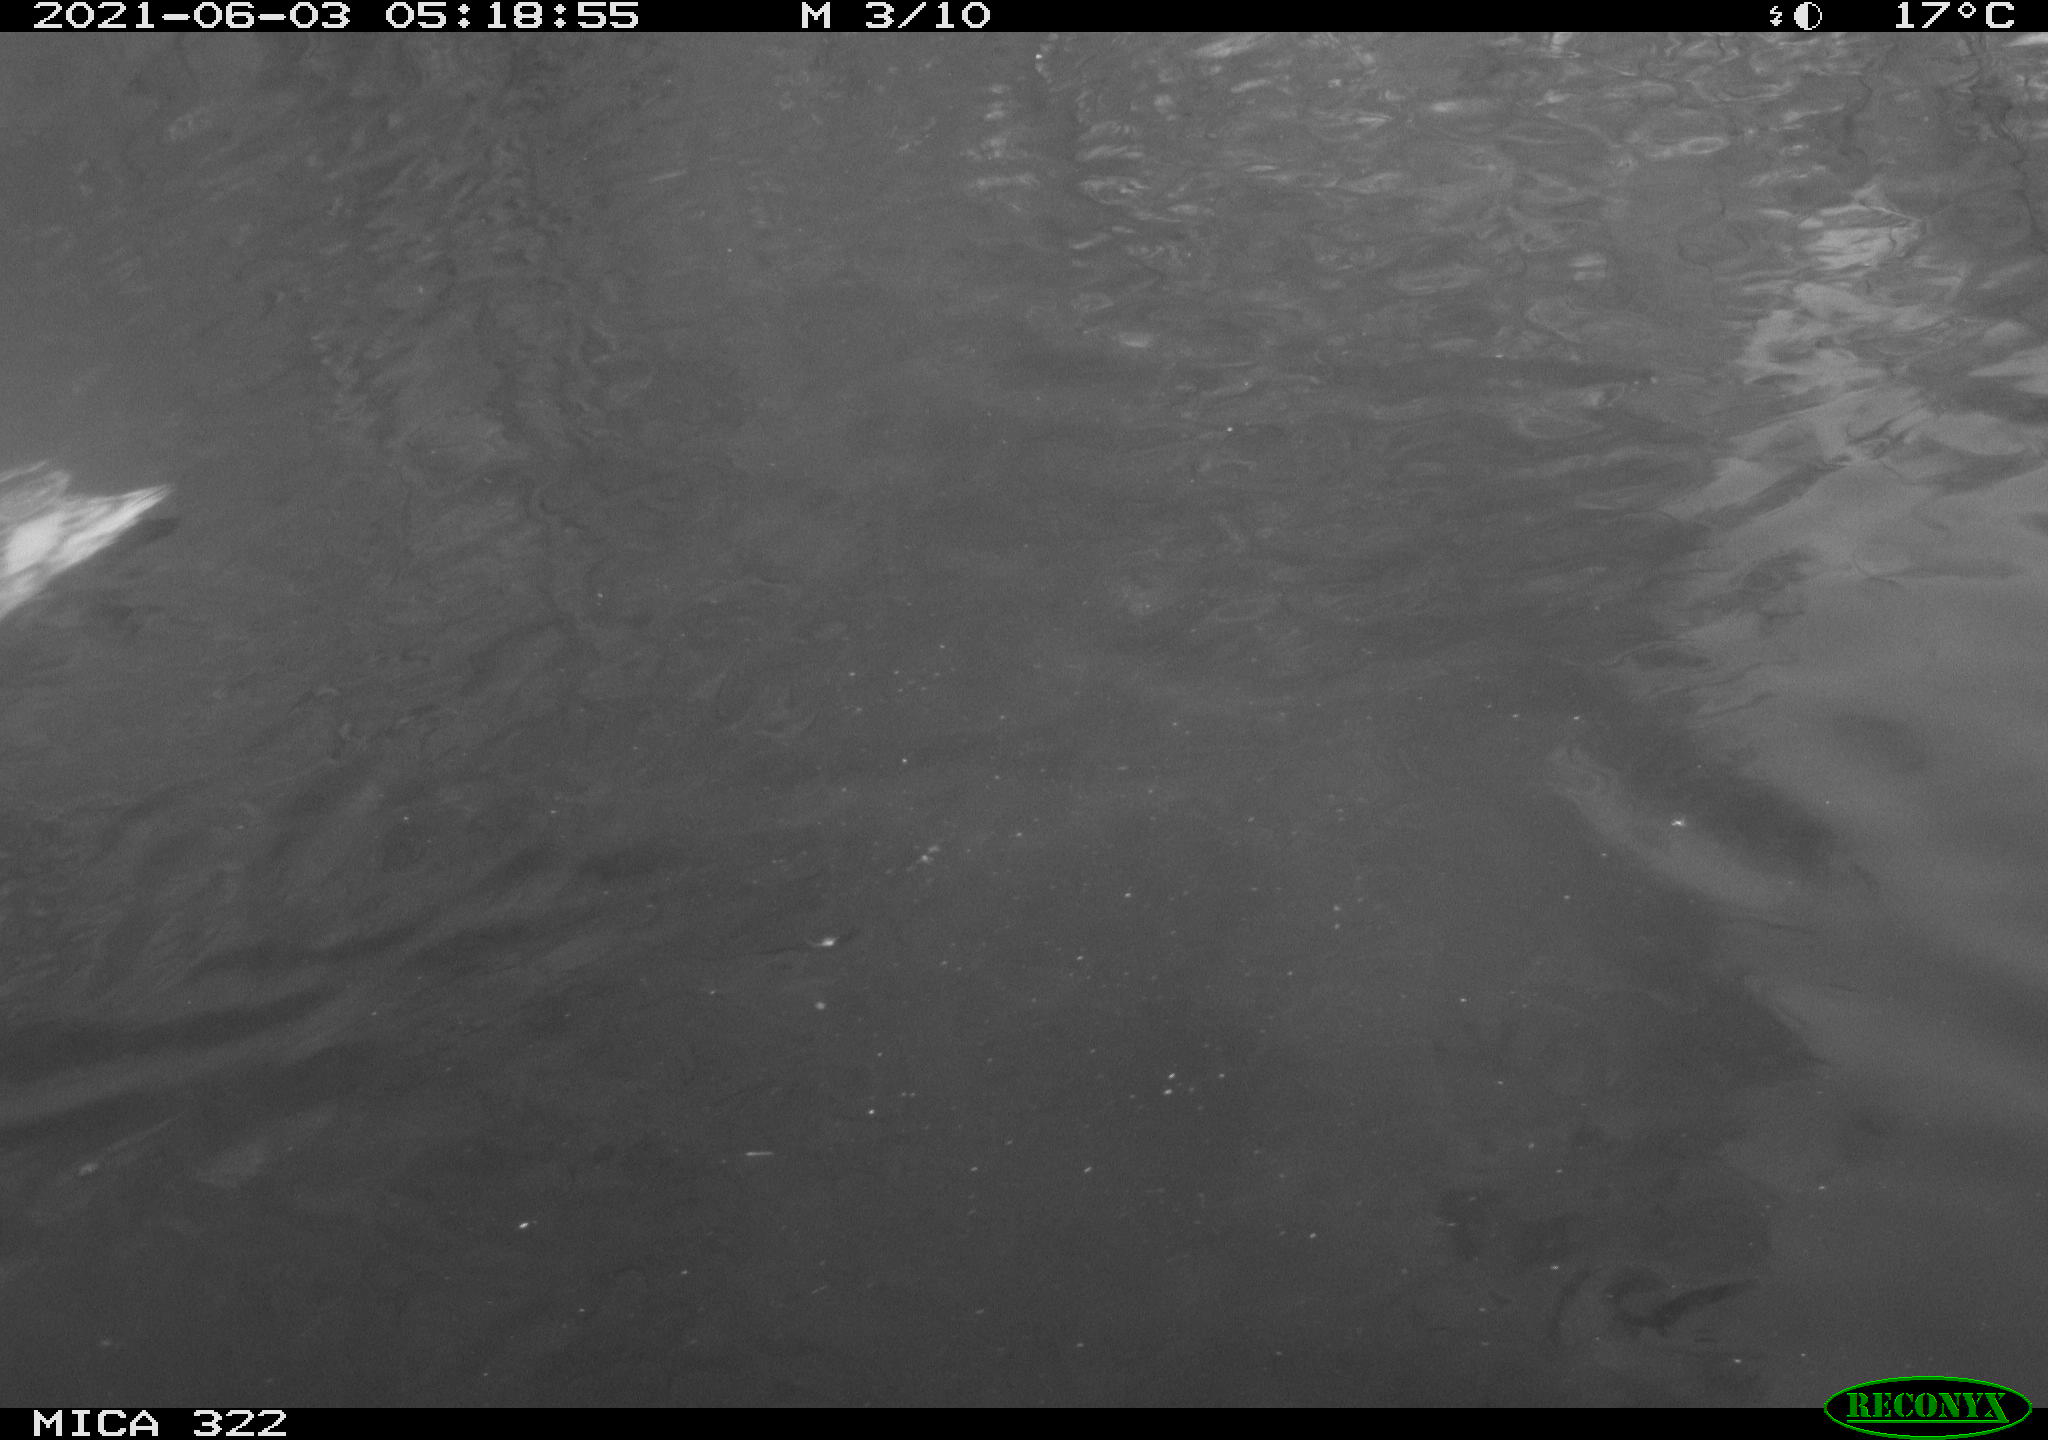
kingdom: Animalia
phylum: Chordata
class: Aves
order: Anseriformes
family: Anatidae
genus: Mareca
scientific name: Mareca strepera
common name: Gadwall
